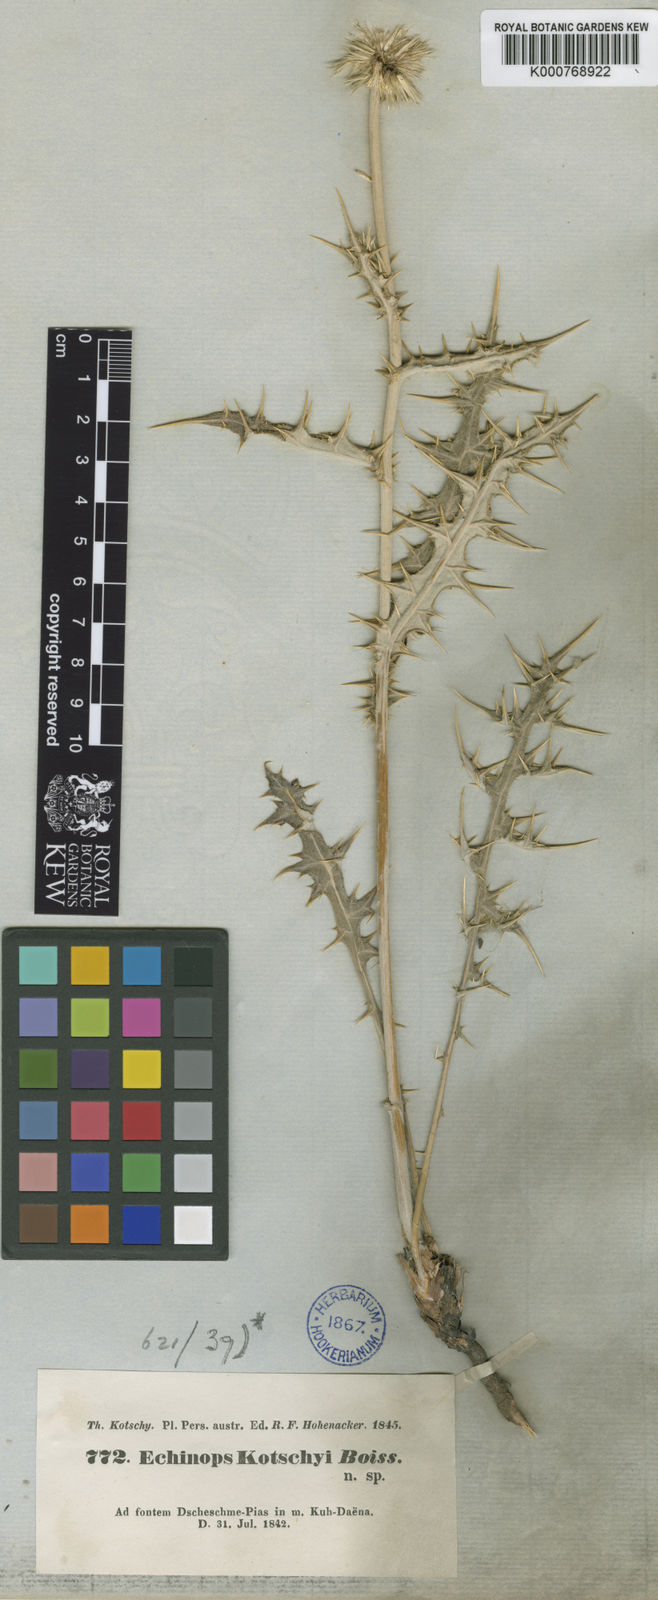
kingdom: Plantae
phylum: Tracheophyta
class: Magnoliopsida
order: Asterales
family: Asteraceae
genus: Echinops
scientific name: Echinops kotschyi
